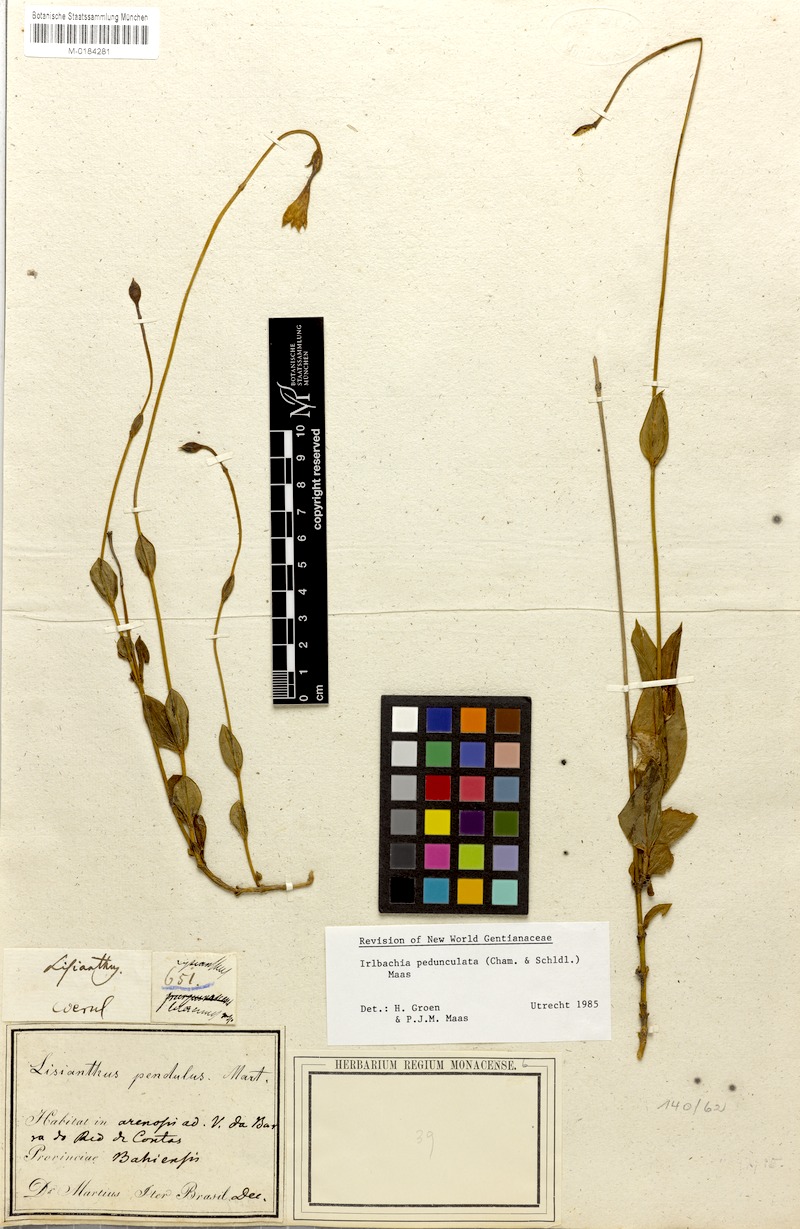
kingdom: Plantae
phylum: Tracheophyta
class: Magnoliopsida
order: Gentianales
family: Gentianaceae
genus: Irlbachia
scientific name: Irlbachia
